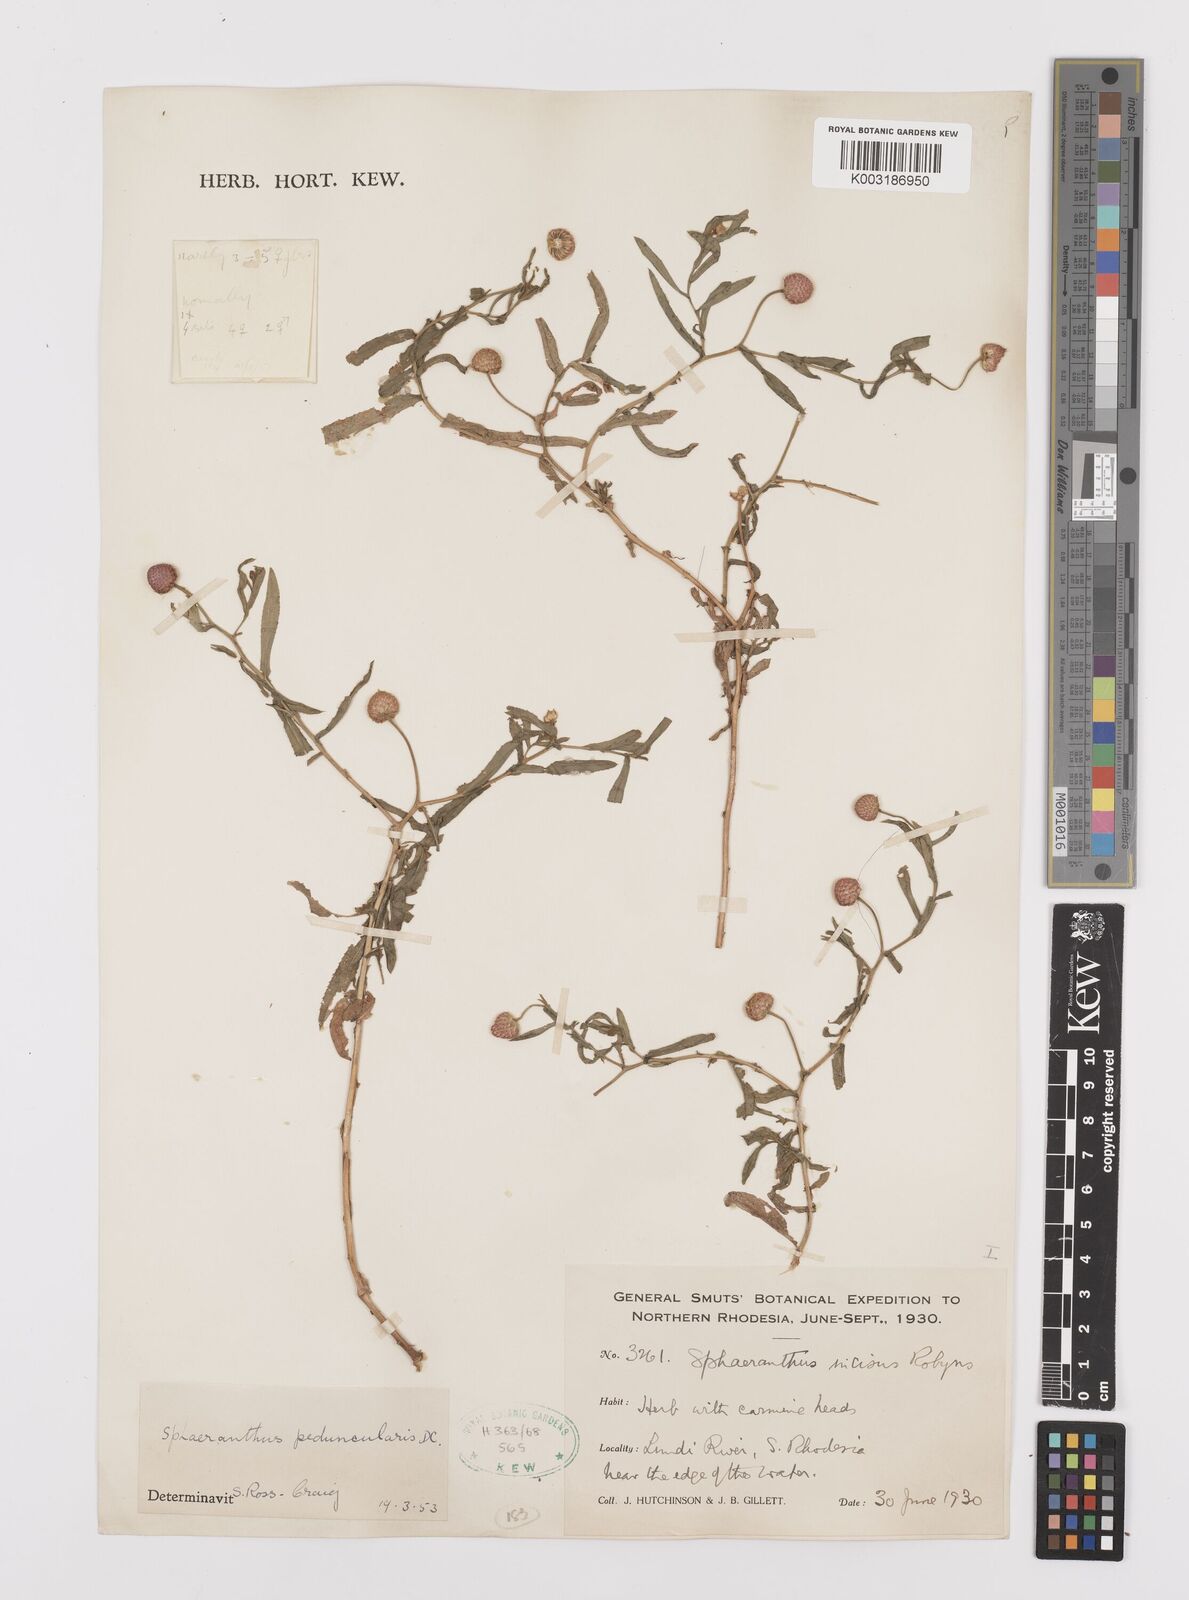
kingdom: Plantae
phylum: Tracheophyta
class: Magnoliopsida
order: Asterales
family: Asteraceae
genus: Sphaeranthus
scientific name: Sphaeranthus peduncularis
